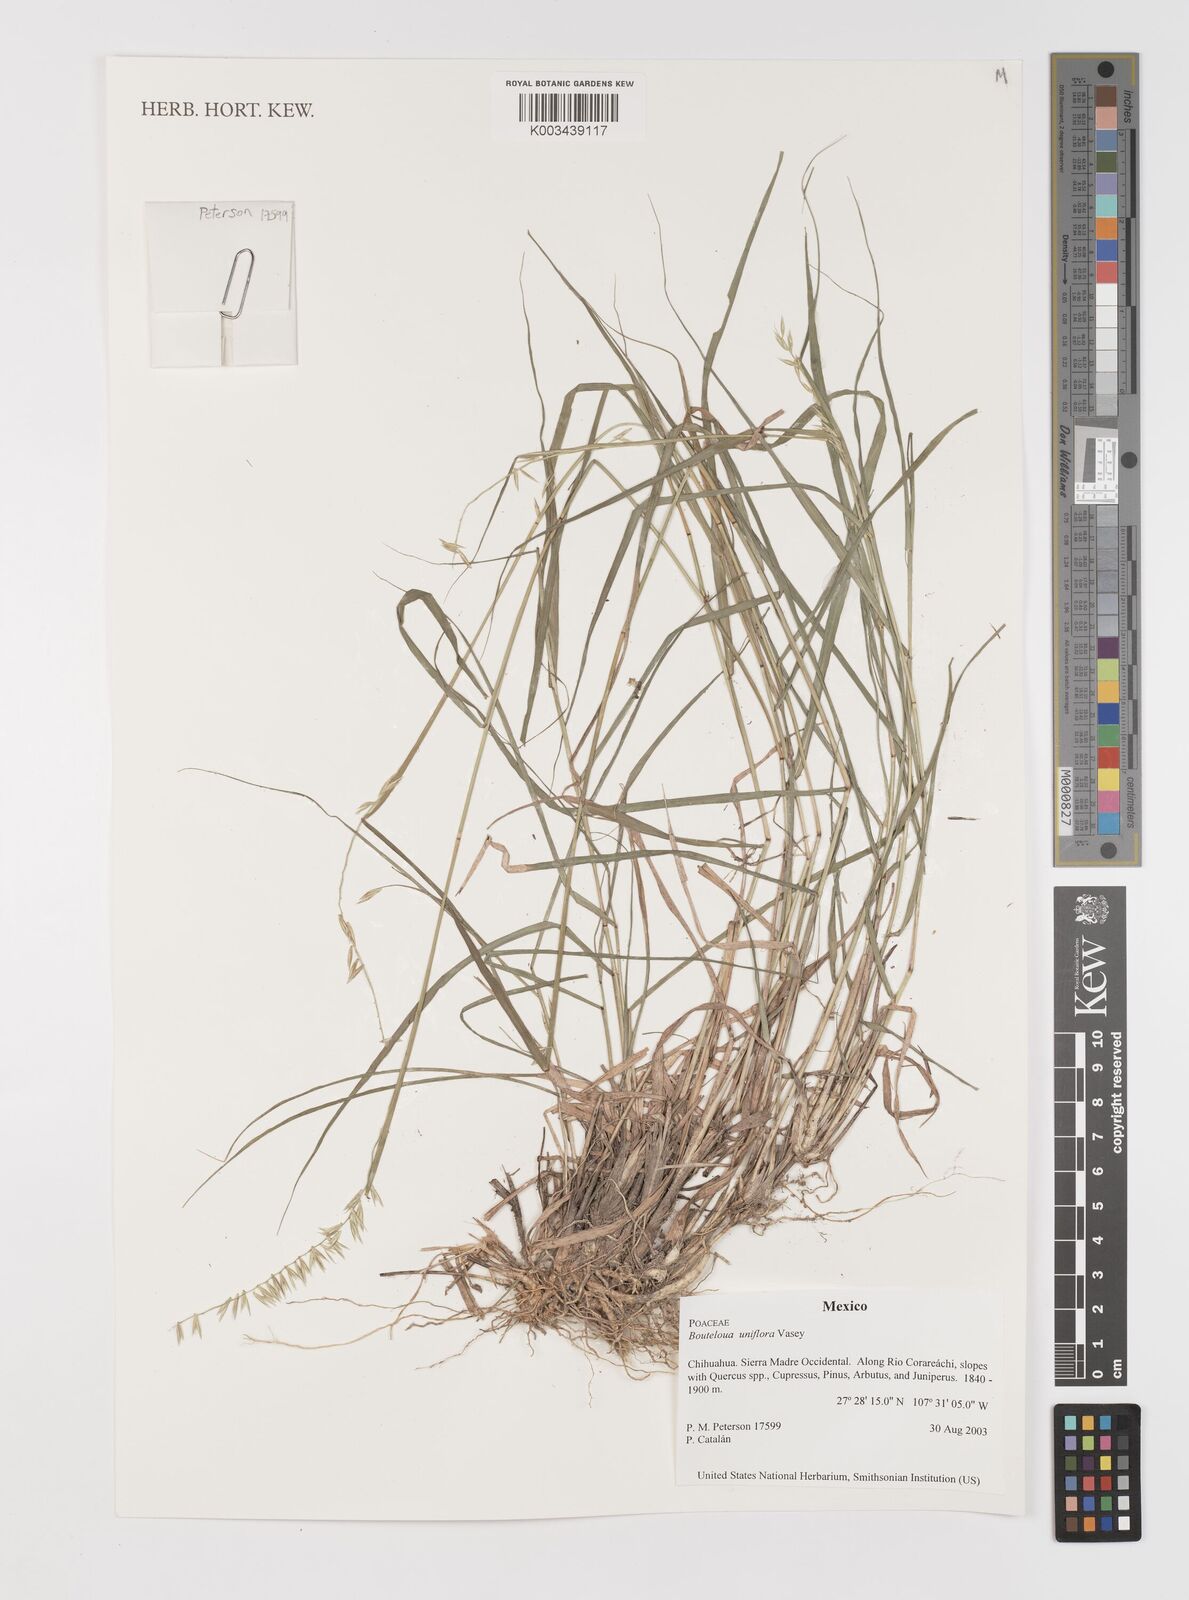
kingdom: Plantae
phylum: Tracheophyta
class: Liliopsida
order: Poales
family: Poaceae
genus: Bouteloua
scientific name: Bouteloua uniflora
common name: Neally's grama
